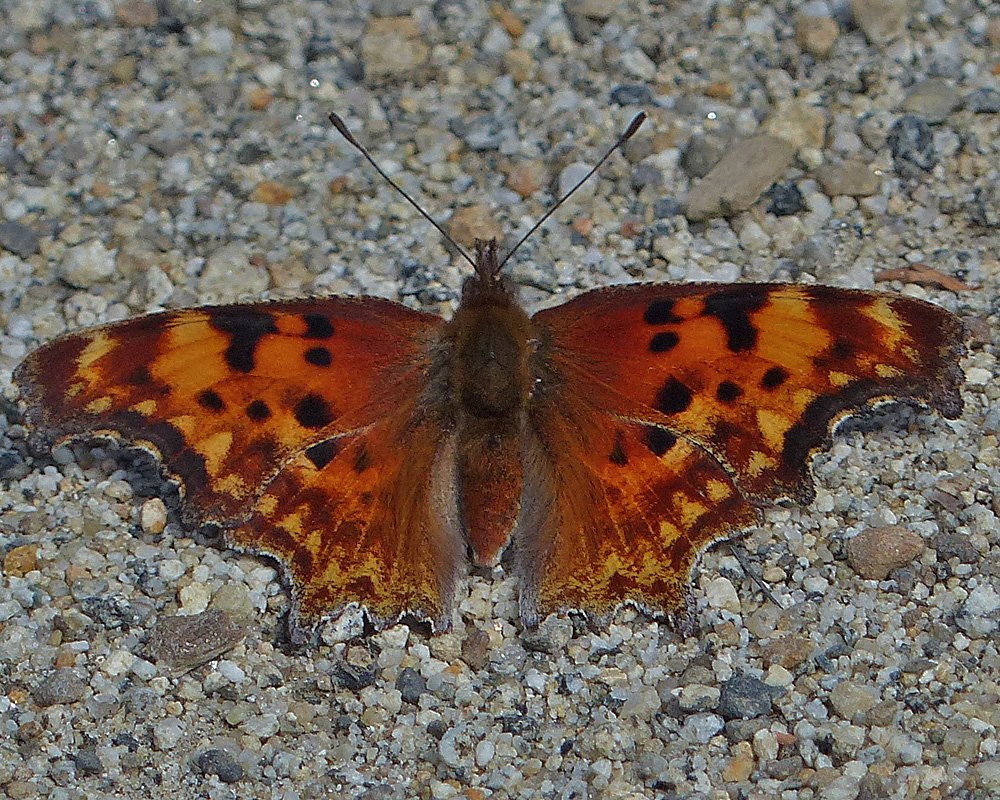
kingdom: Animalia
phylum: Arthropoda
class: Insecta
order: Lepidoptera
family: Nymphalidae
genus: Polygonia
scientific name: Polygonia satyrus
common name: Satyr Comma
